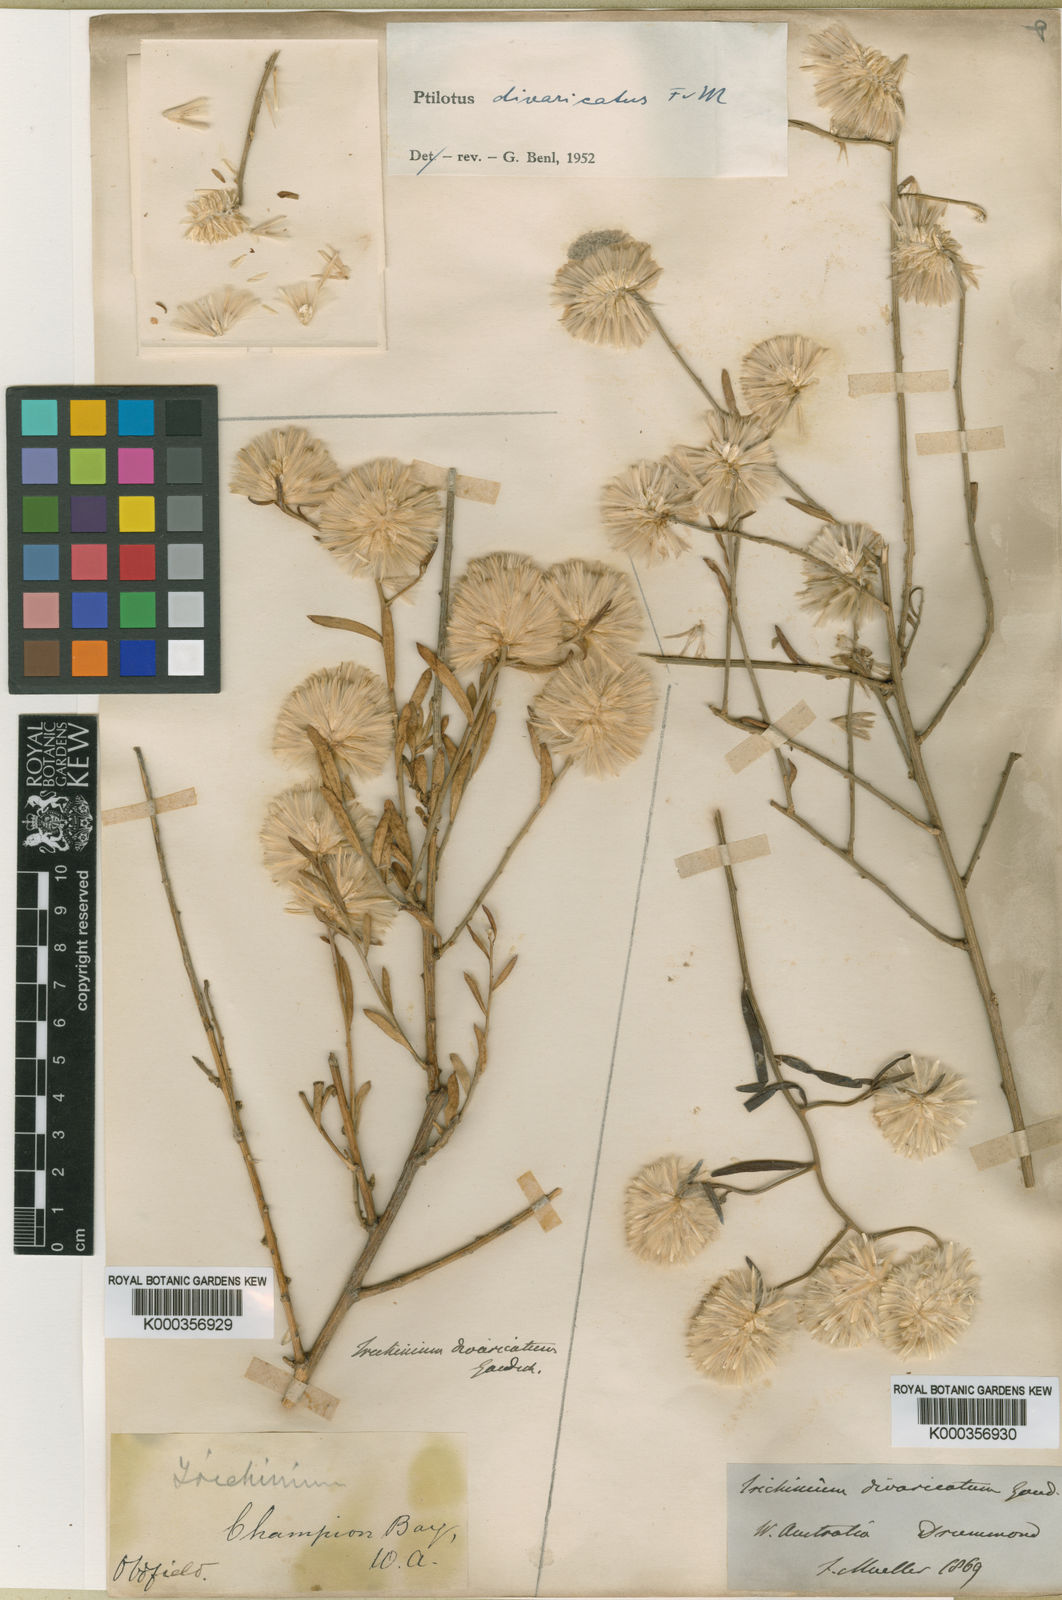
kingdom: Plantae
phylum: Tracheophyta
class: Magnoliopsida
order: Caryophyllales
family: Amaranthaceae
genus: Ptilotus
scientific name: Ptilotus divaricatus
